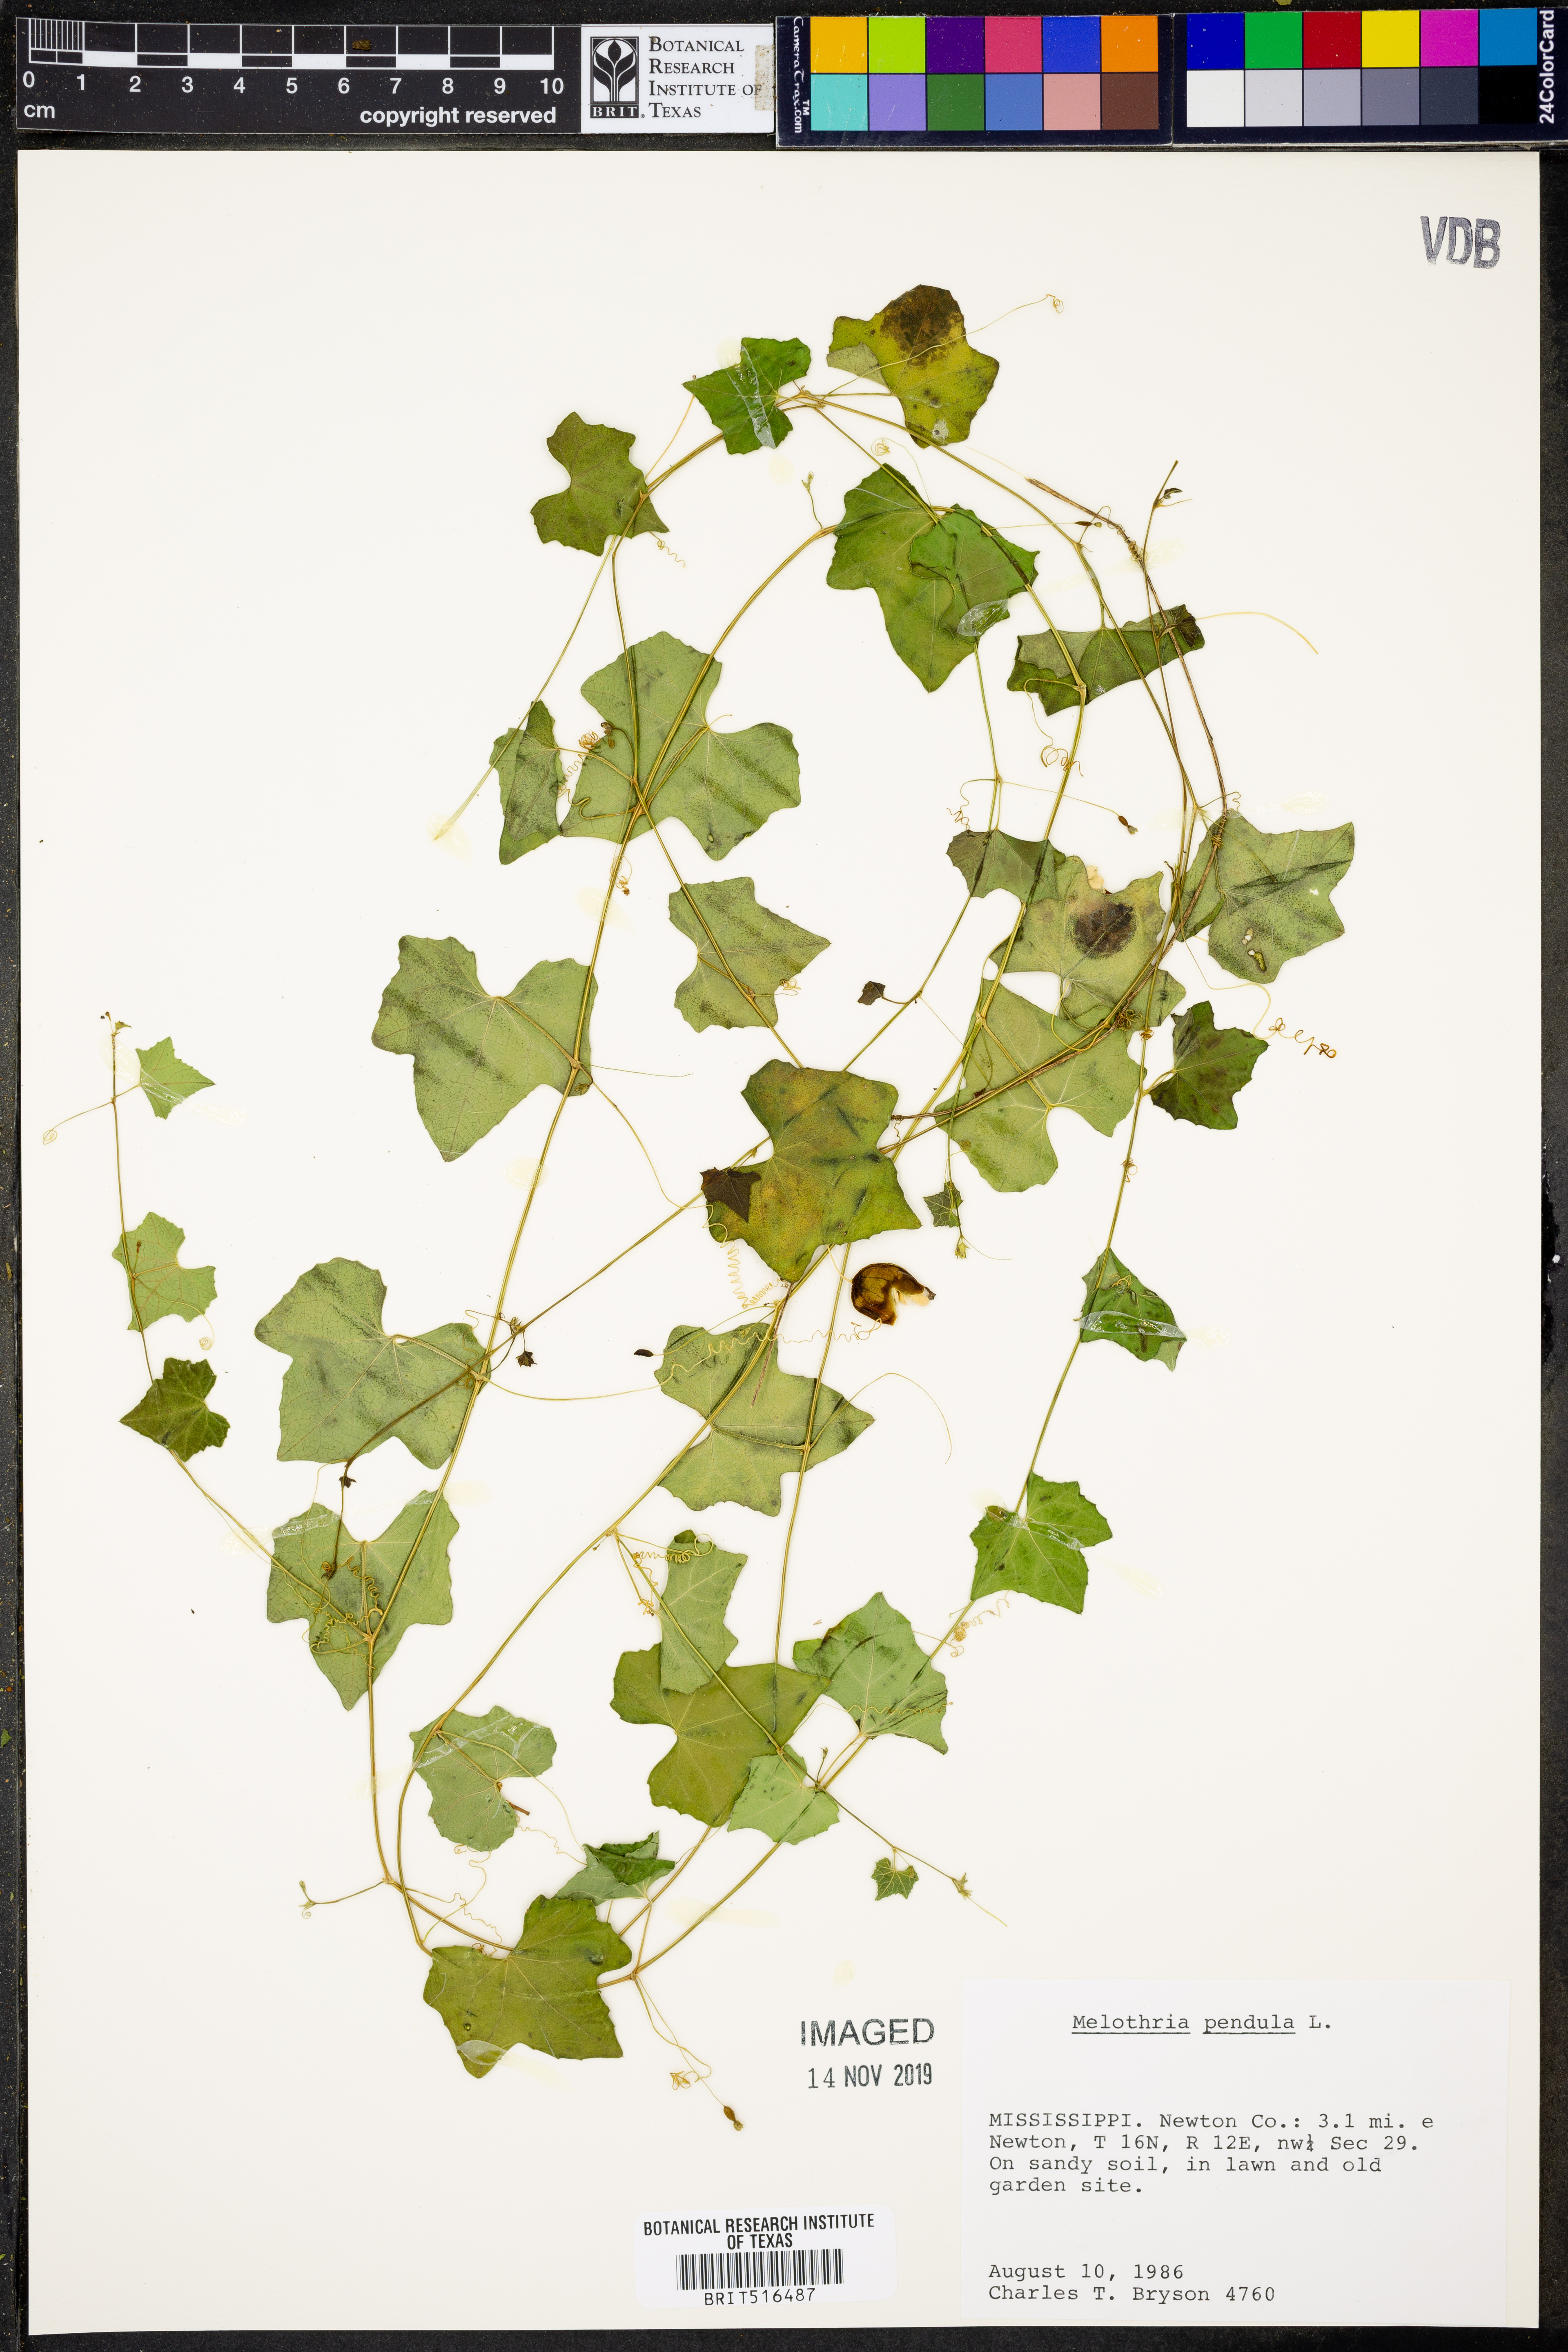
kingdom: Plantae
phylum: Tracheophyta
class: Magnoliopsida
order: Cucurbitales
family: Cucurbitaceae
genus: Melothria
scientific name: Melothria pendula
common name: Creeping-cucumber
